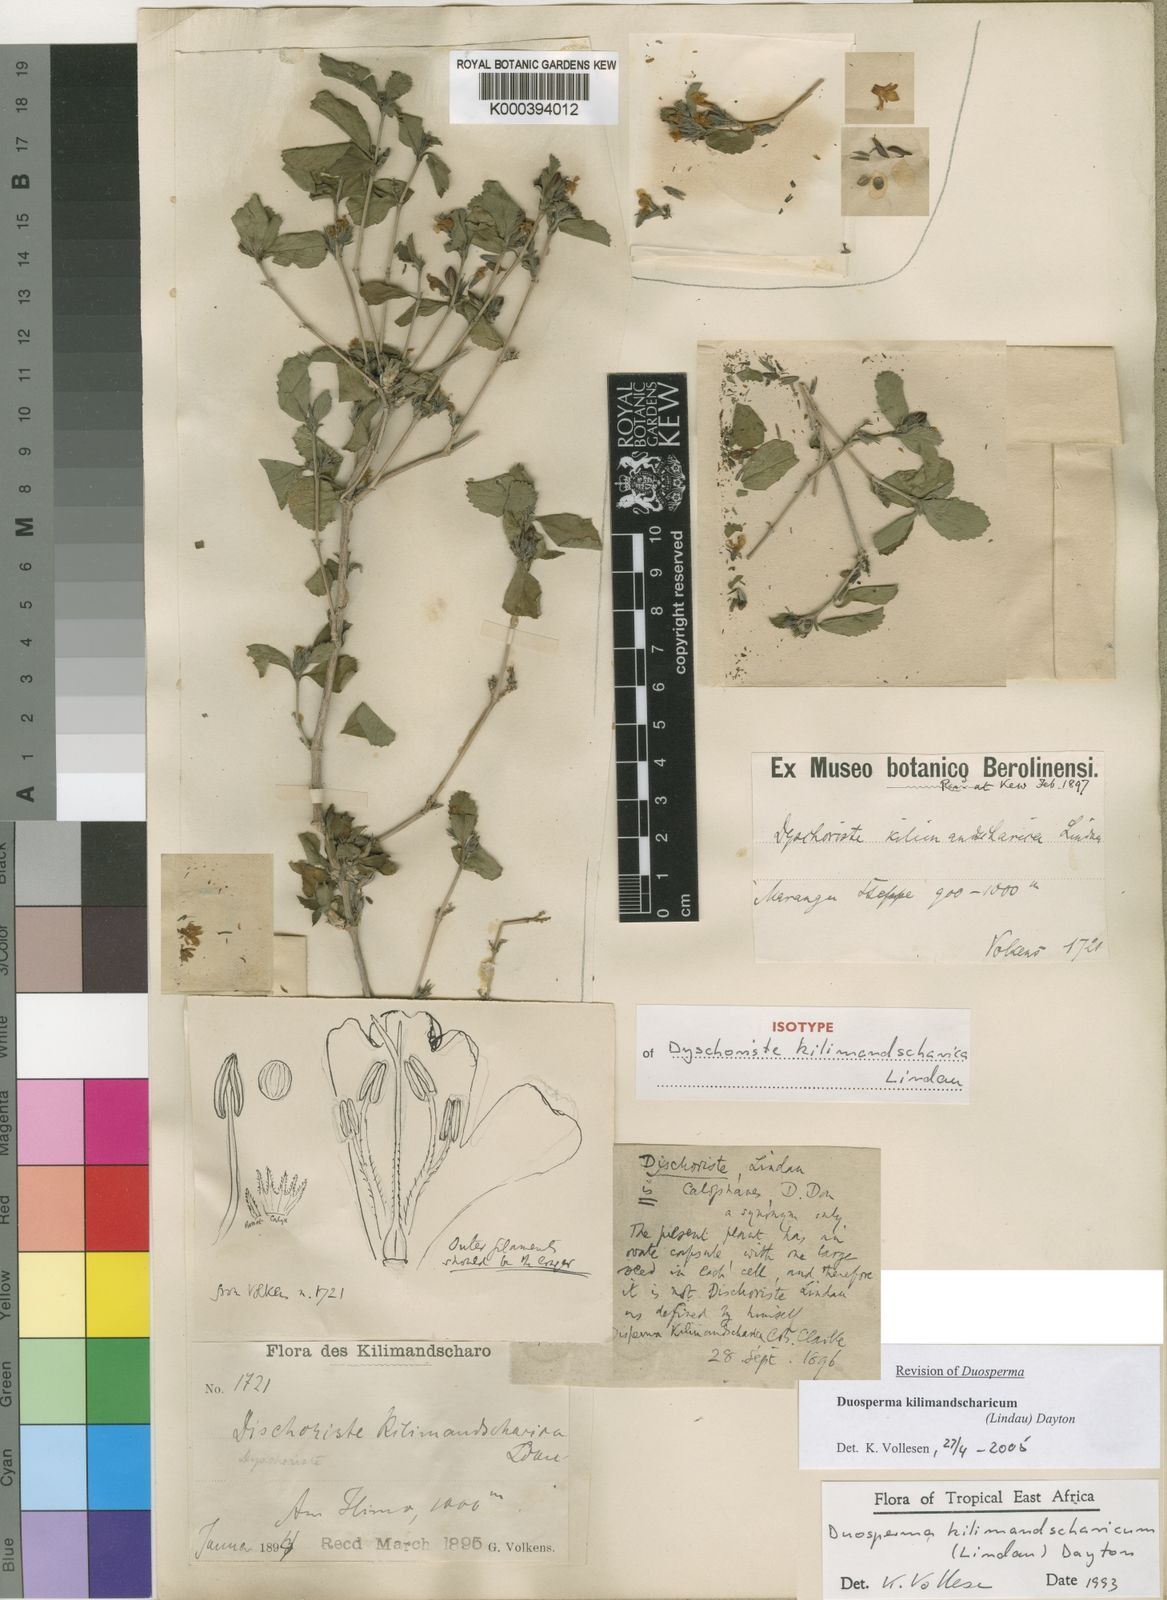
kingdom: Plantae
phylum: Tracheophyta
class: Magnoliopsida
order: Lamiales
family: Acanthaceae
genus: Duosperma
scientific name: Duosperma kilimandscharicum
